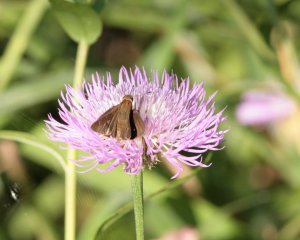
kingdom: Animalia
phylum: Arthropoda
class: Insecta
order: Lepidoptera
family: Hesperiidae
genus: Nastra
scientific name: Nastra julia
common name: Julia's Skipper
